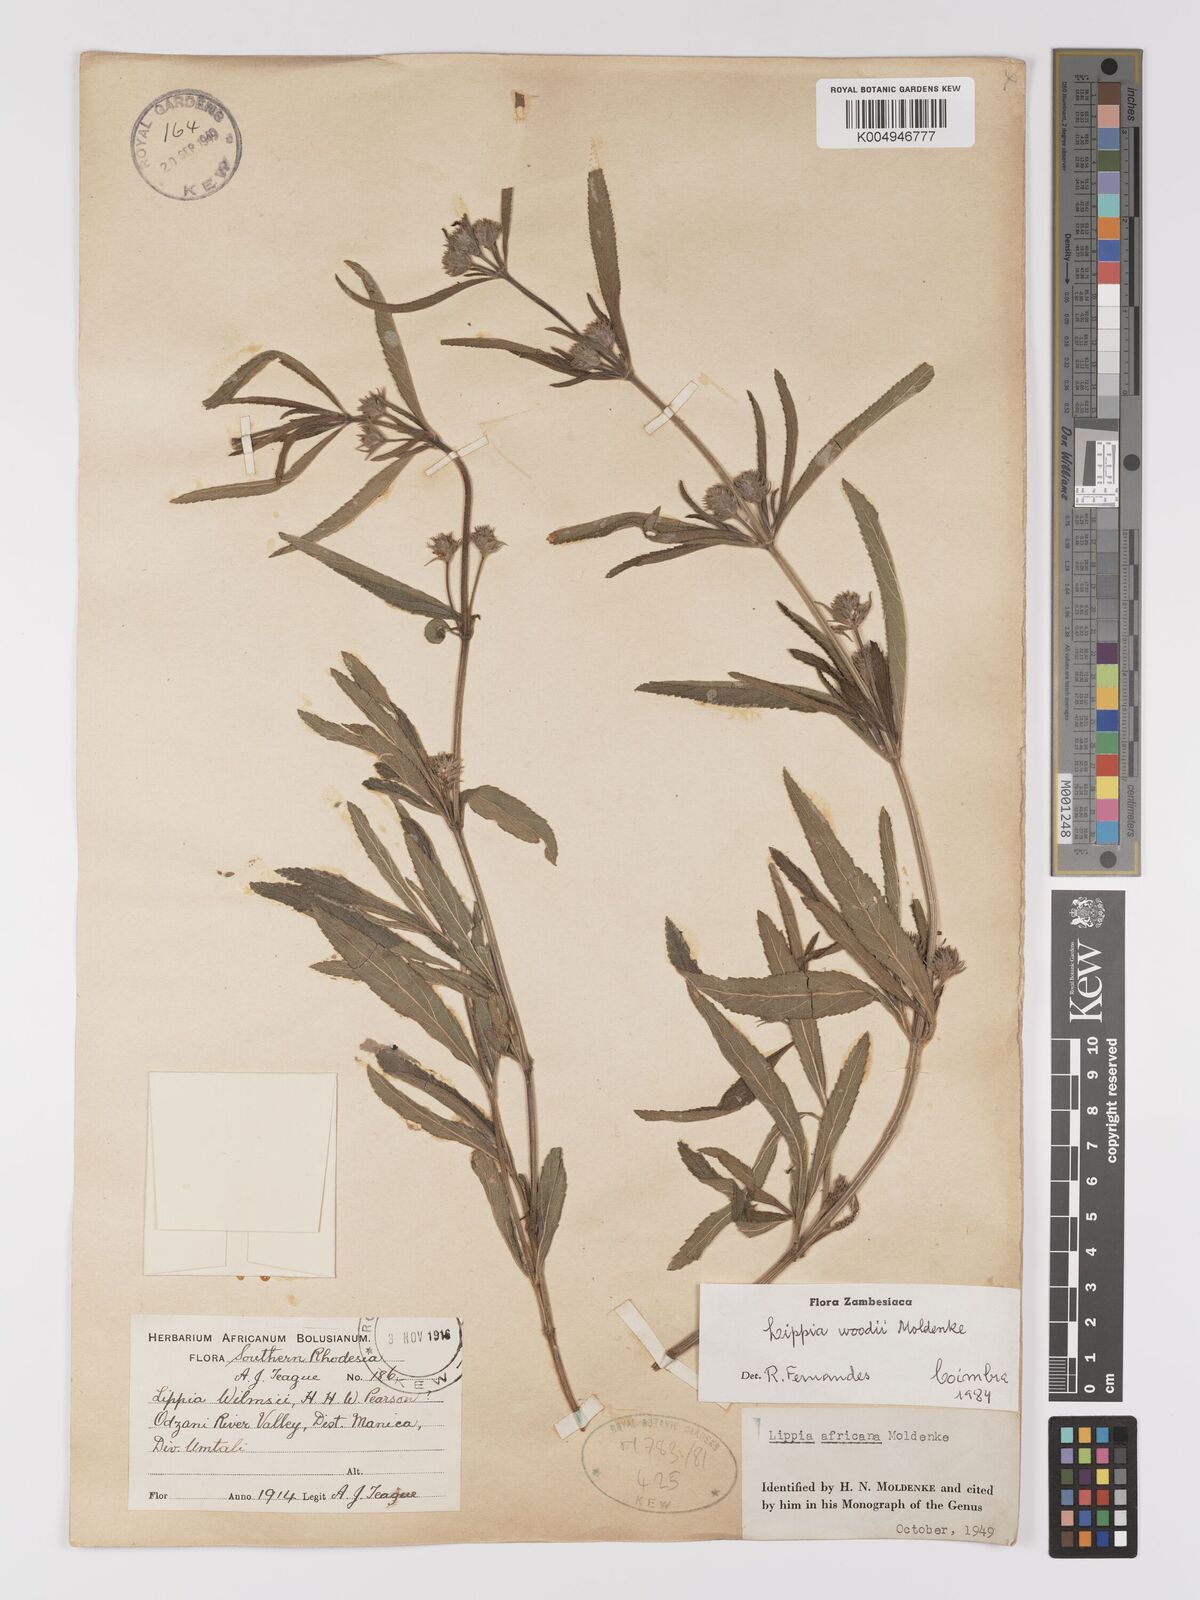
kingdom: Plantae
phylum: Tracheophyta
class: Magnoliopsida
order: Lamiales
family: Verbenaceae
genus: Lippia
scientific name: Lippia woodii
